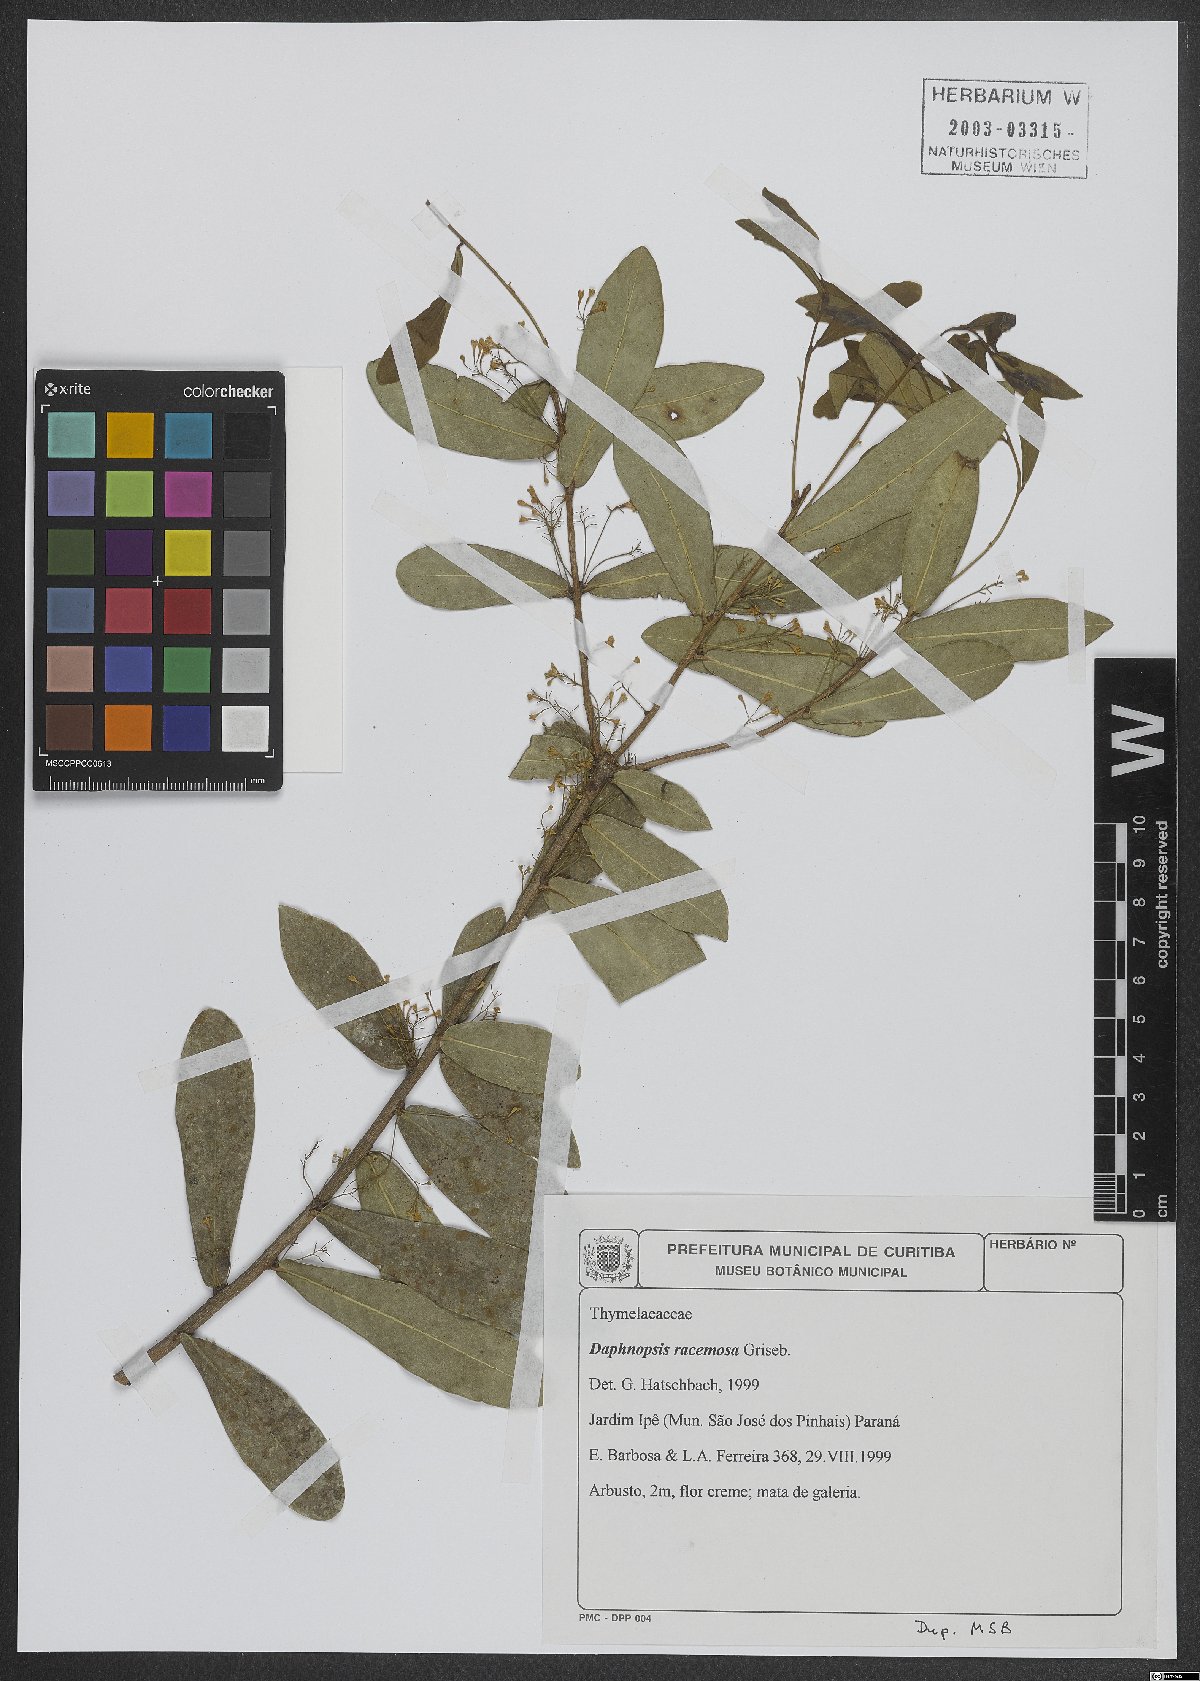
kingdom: Plantae
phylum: Tracheophyta
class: Magnoliopsida
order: Malvales
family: Thymelaeaceae
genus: Daphnopsis
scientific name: Daphnopsis racemosa
